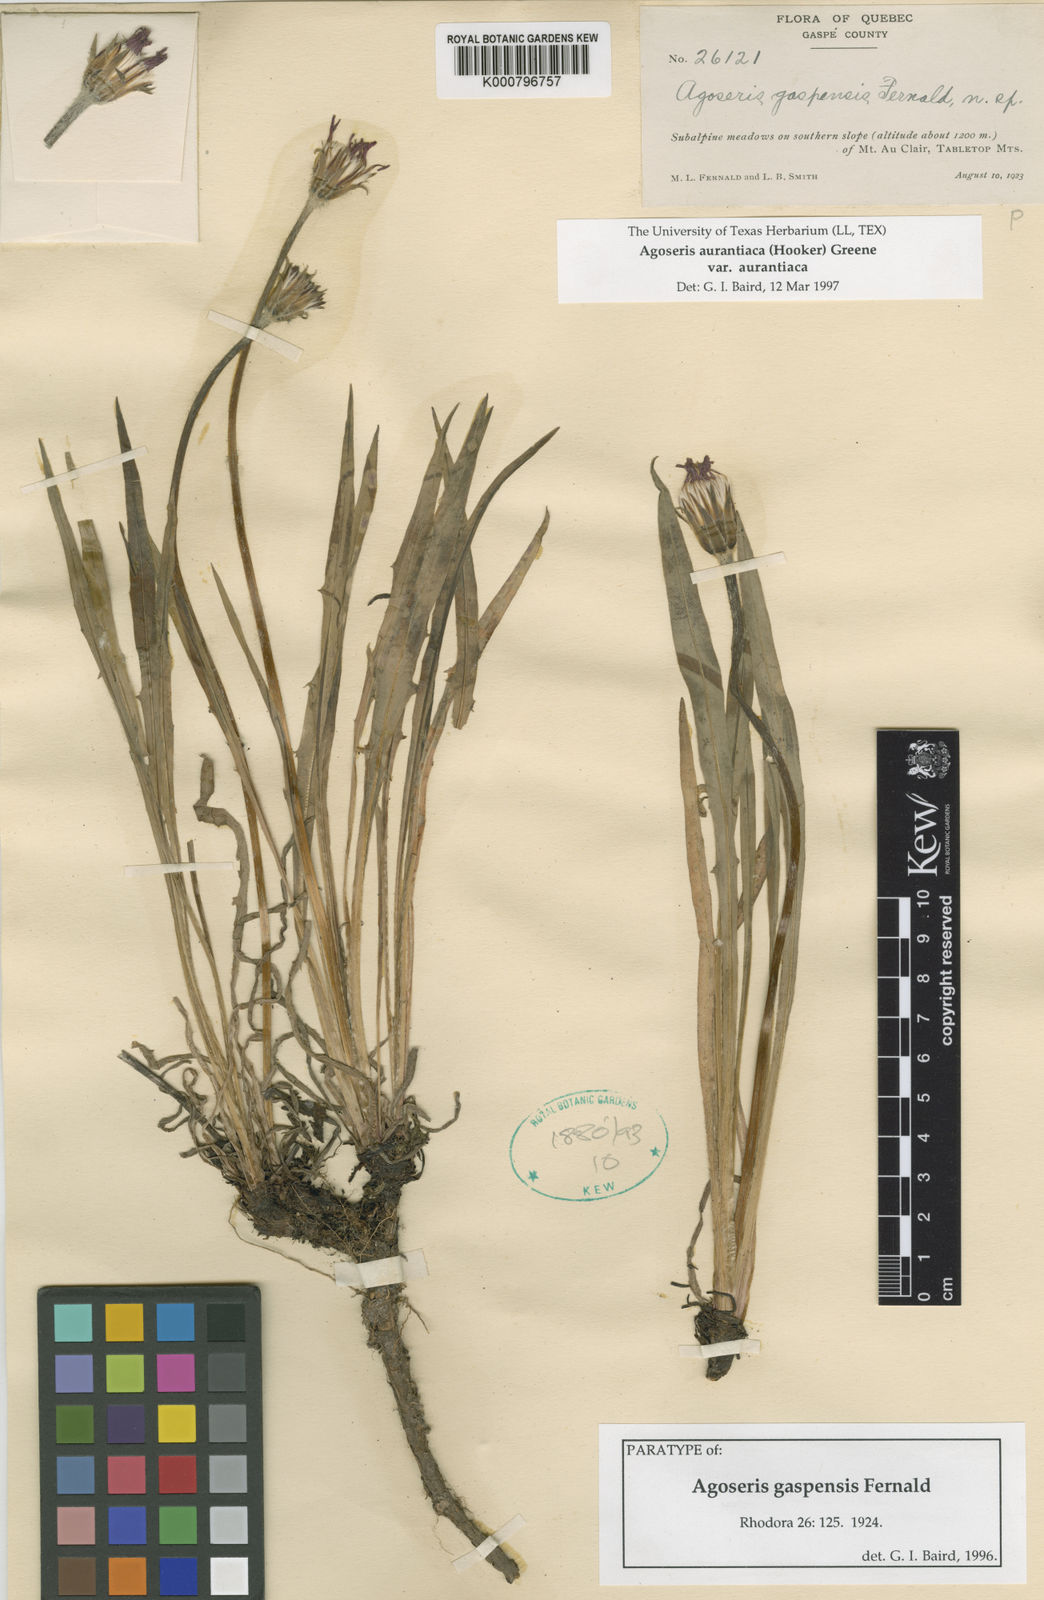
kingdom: Plantae
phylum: Tracheophyta
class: Magnoliopsida
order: Asterales
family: Asteraceae
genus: Agoseris
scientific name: Agoseris aurantiaca
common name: Mountain agoseris
